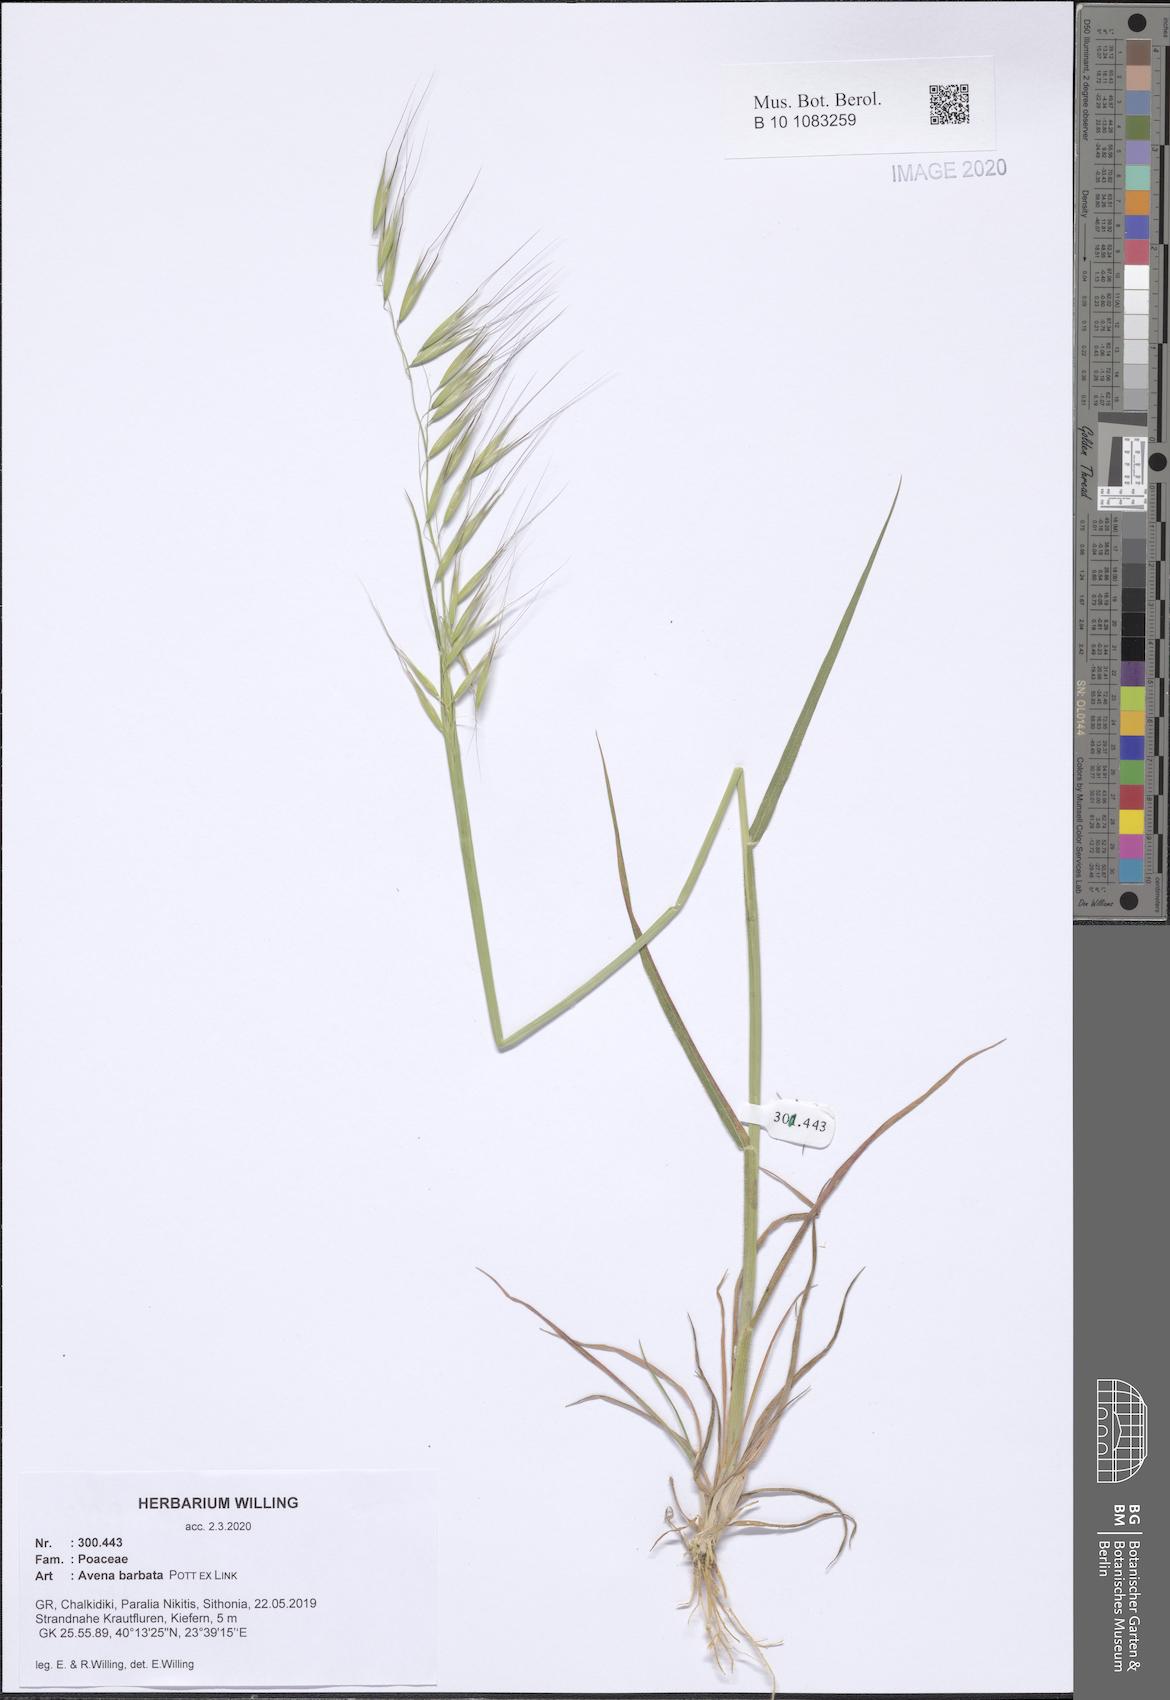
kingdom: Plantae
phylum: Tracheophyta
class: Liliopsida
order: Poales
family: Poaceae
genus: Avena
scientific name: Avena barbata
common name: Slender oat
